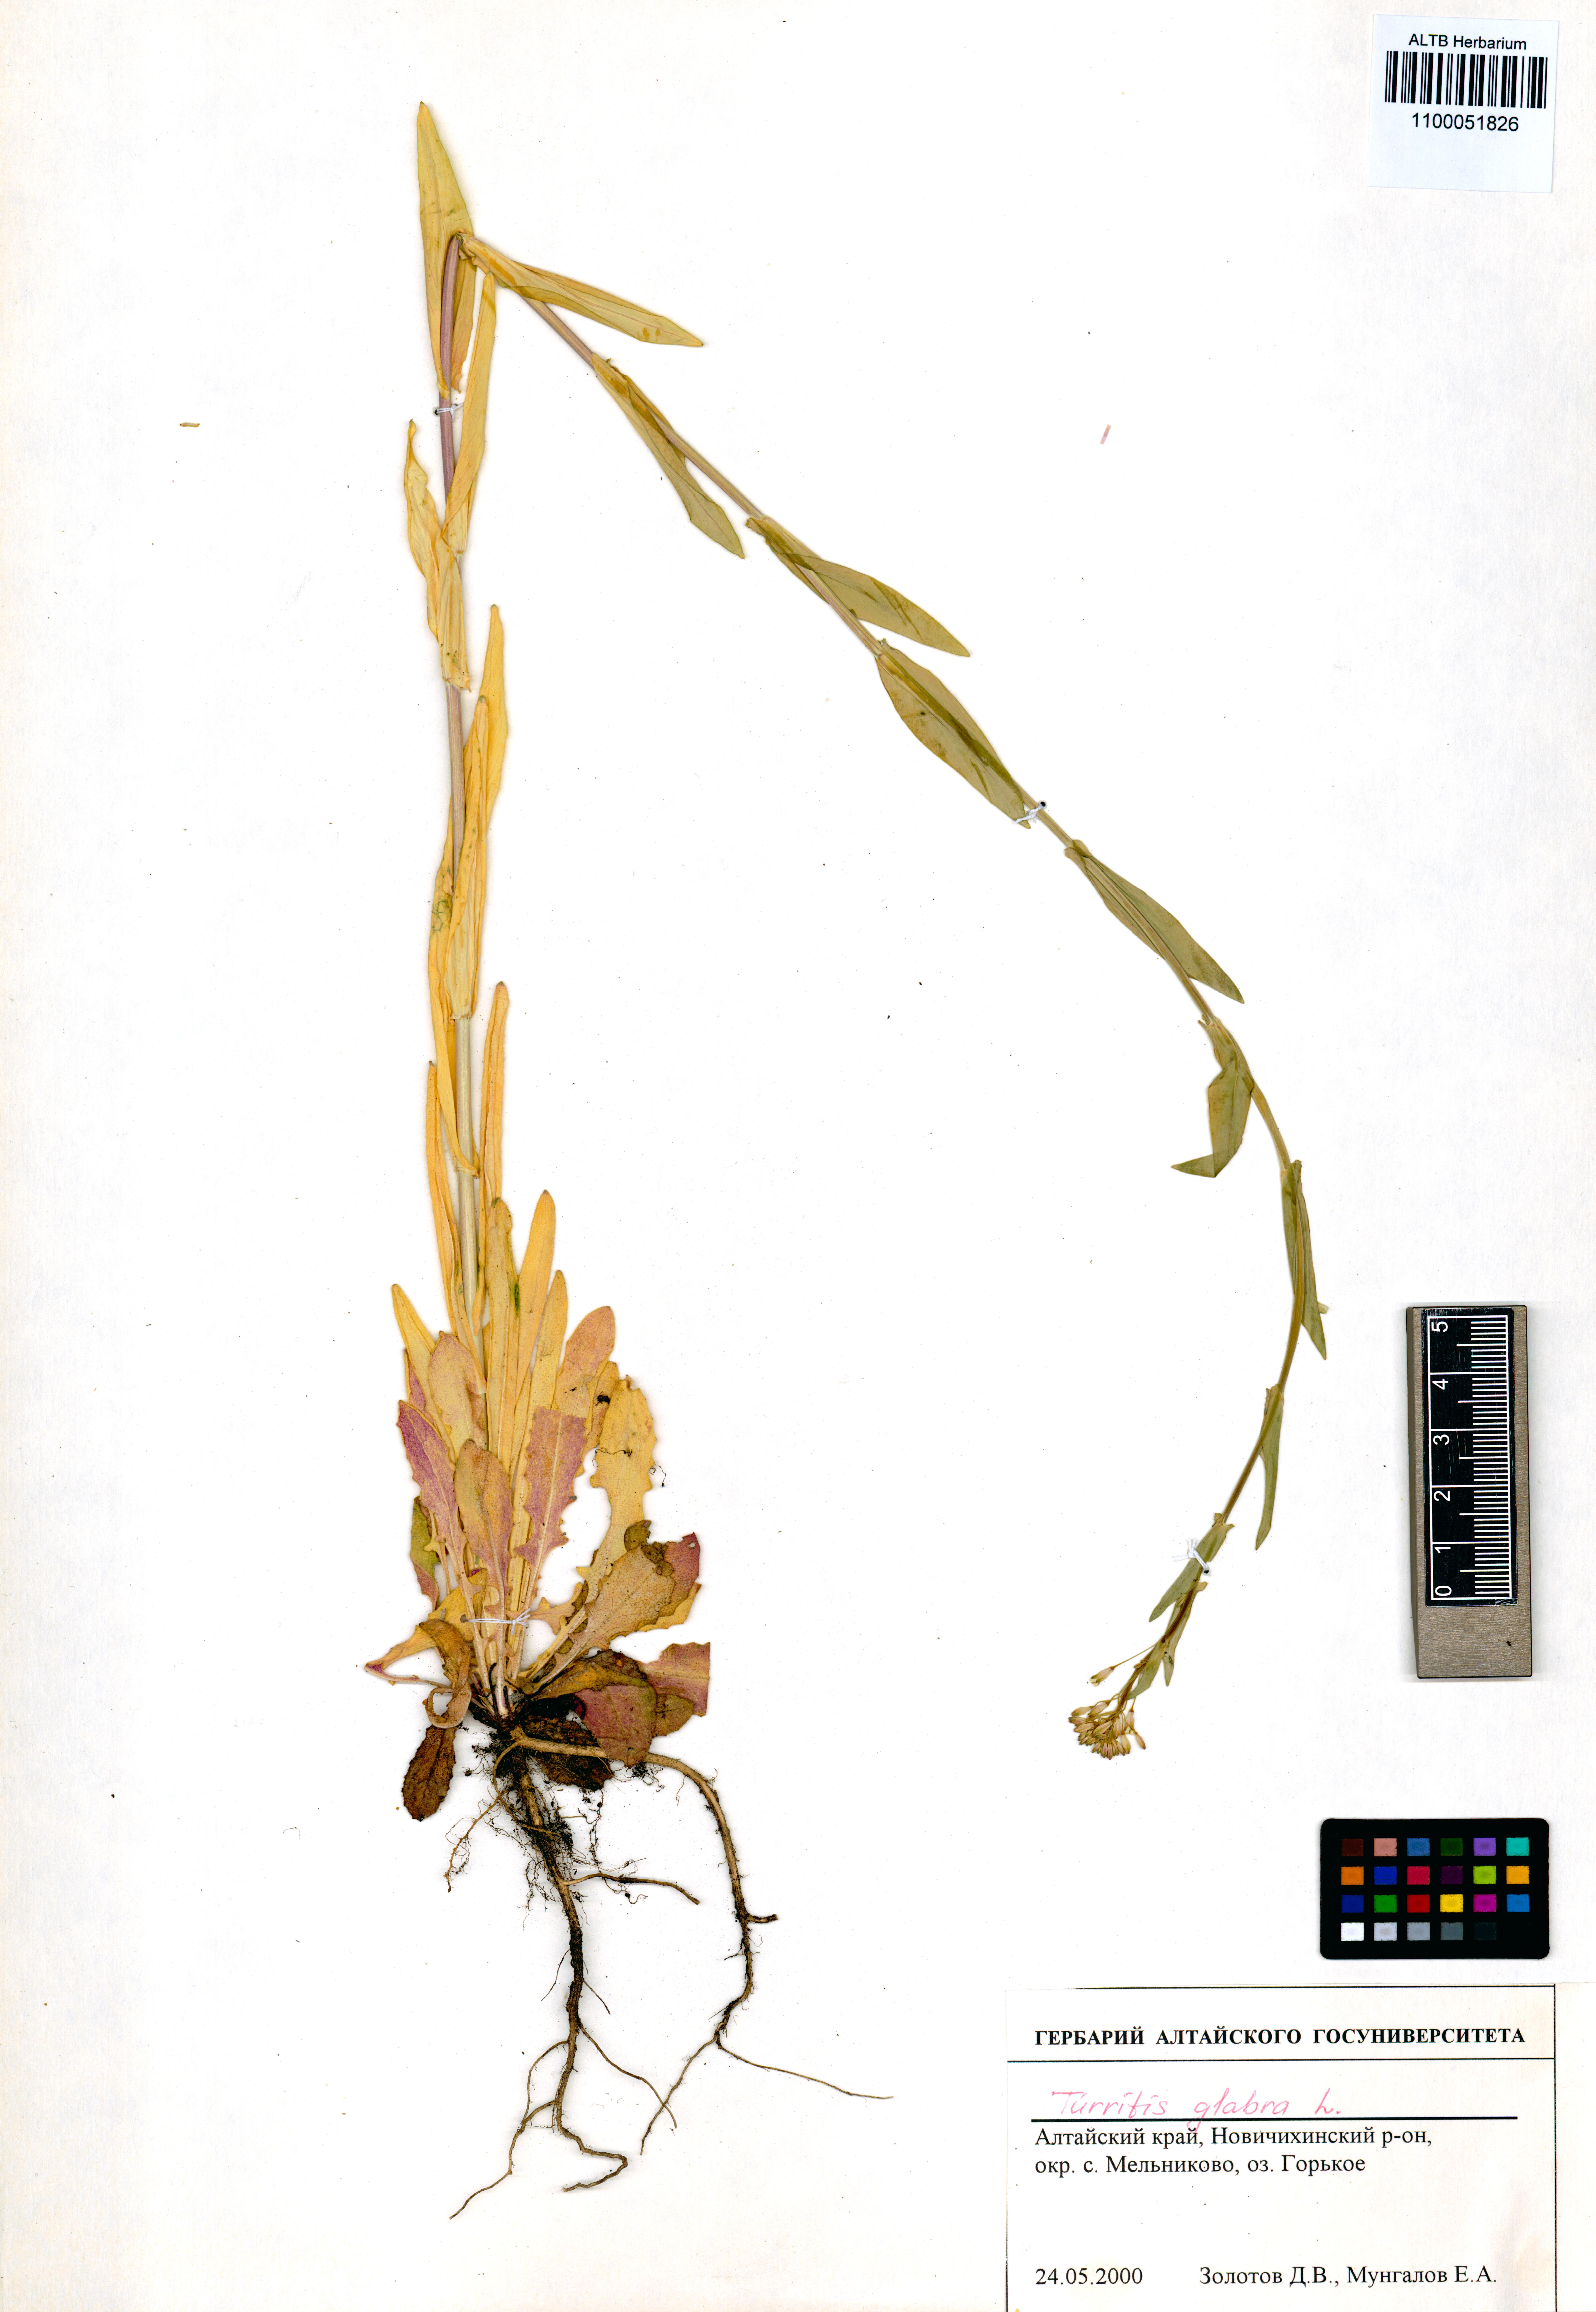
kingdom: Plantae
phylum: Tracheophyta
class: Magnoliopsida
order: Brassicales
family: Brassicaceae
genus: Turritis
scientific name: Turritis glabra
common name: Tower rockcress
